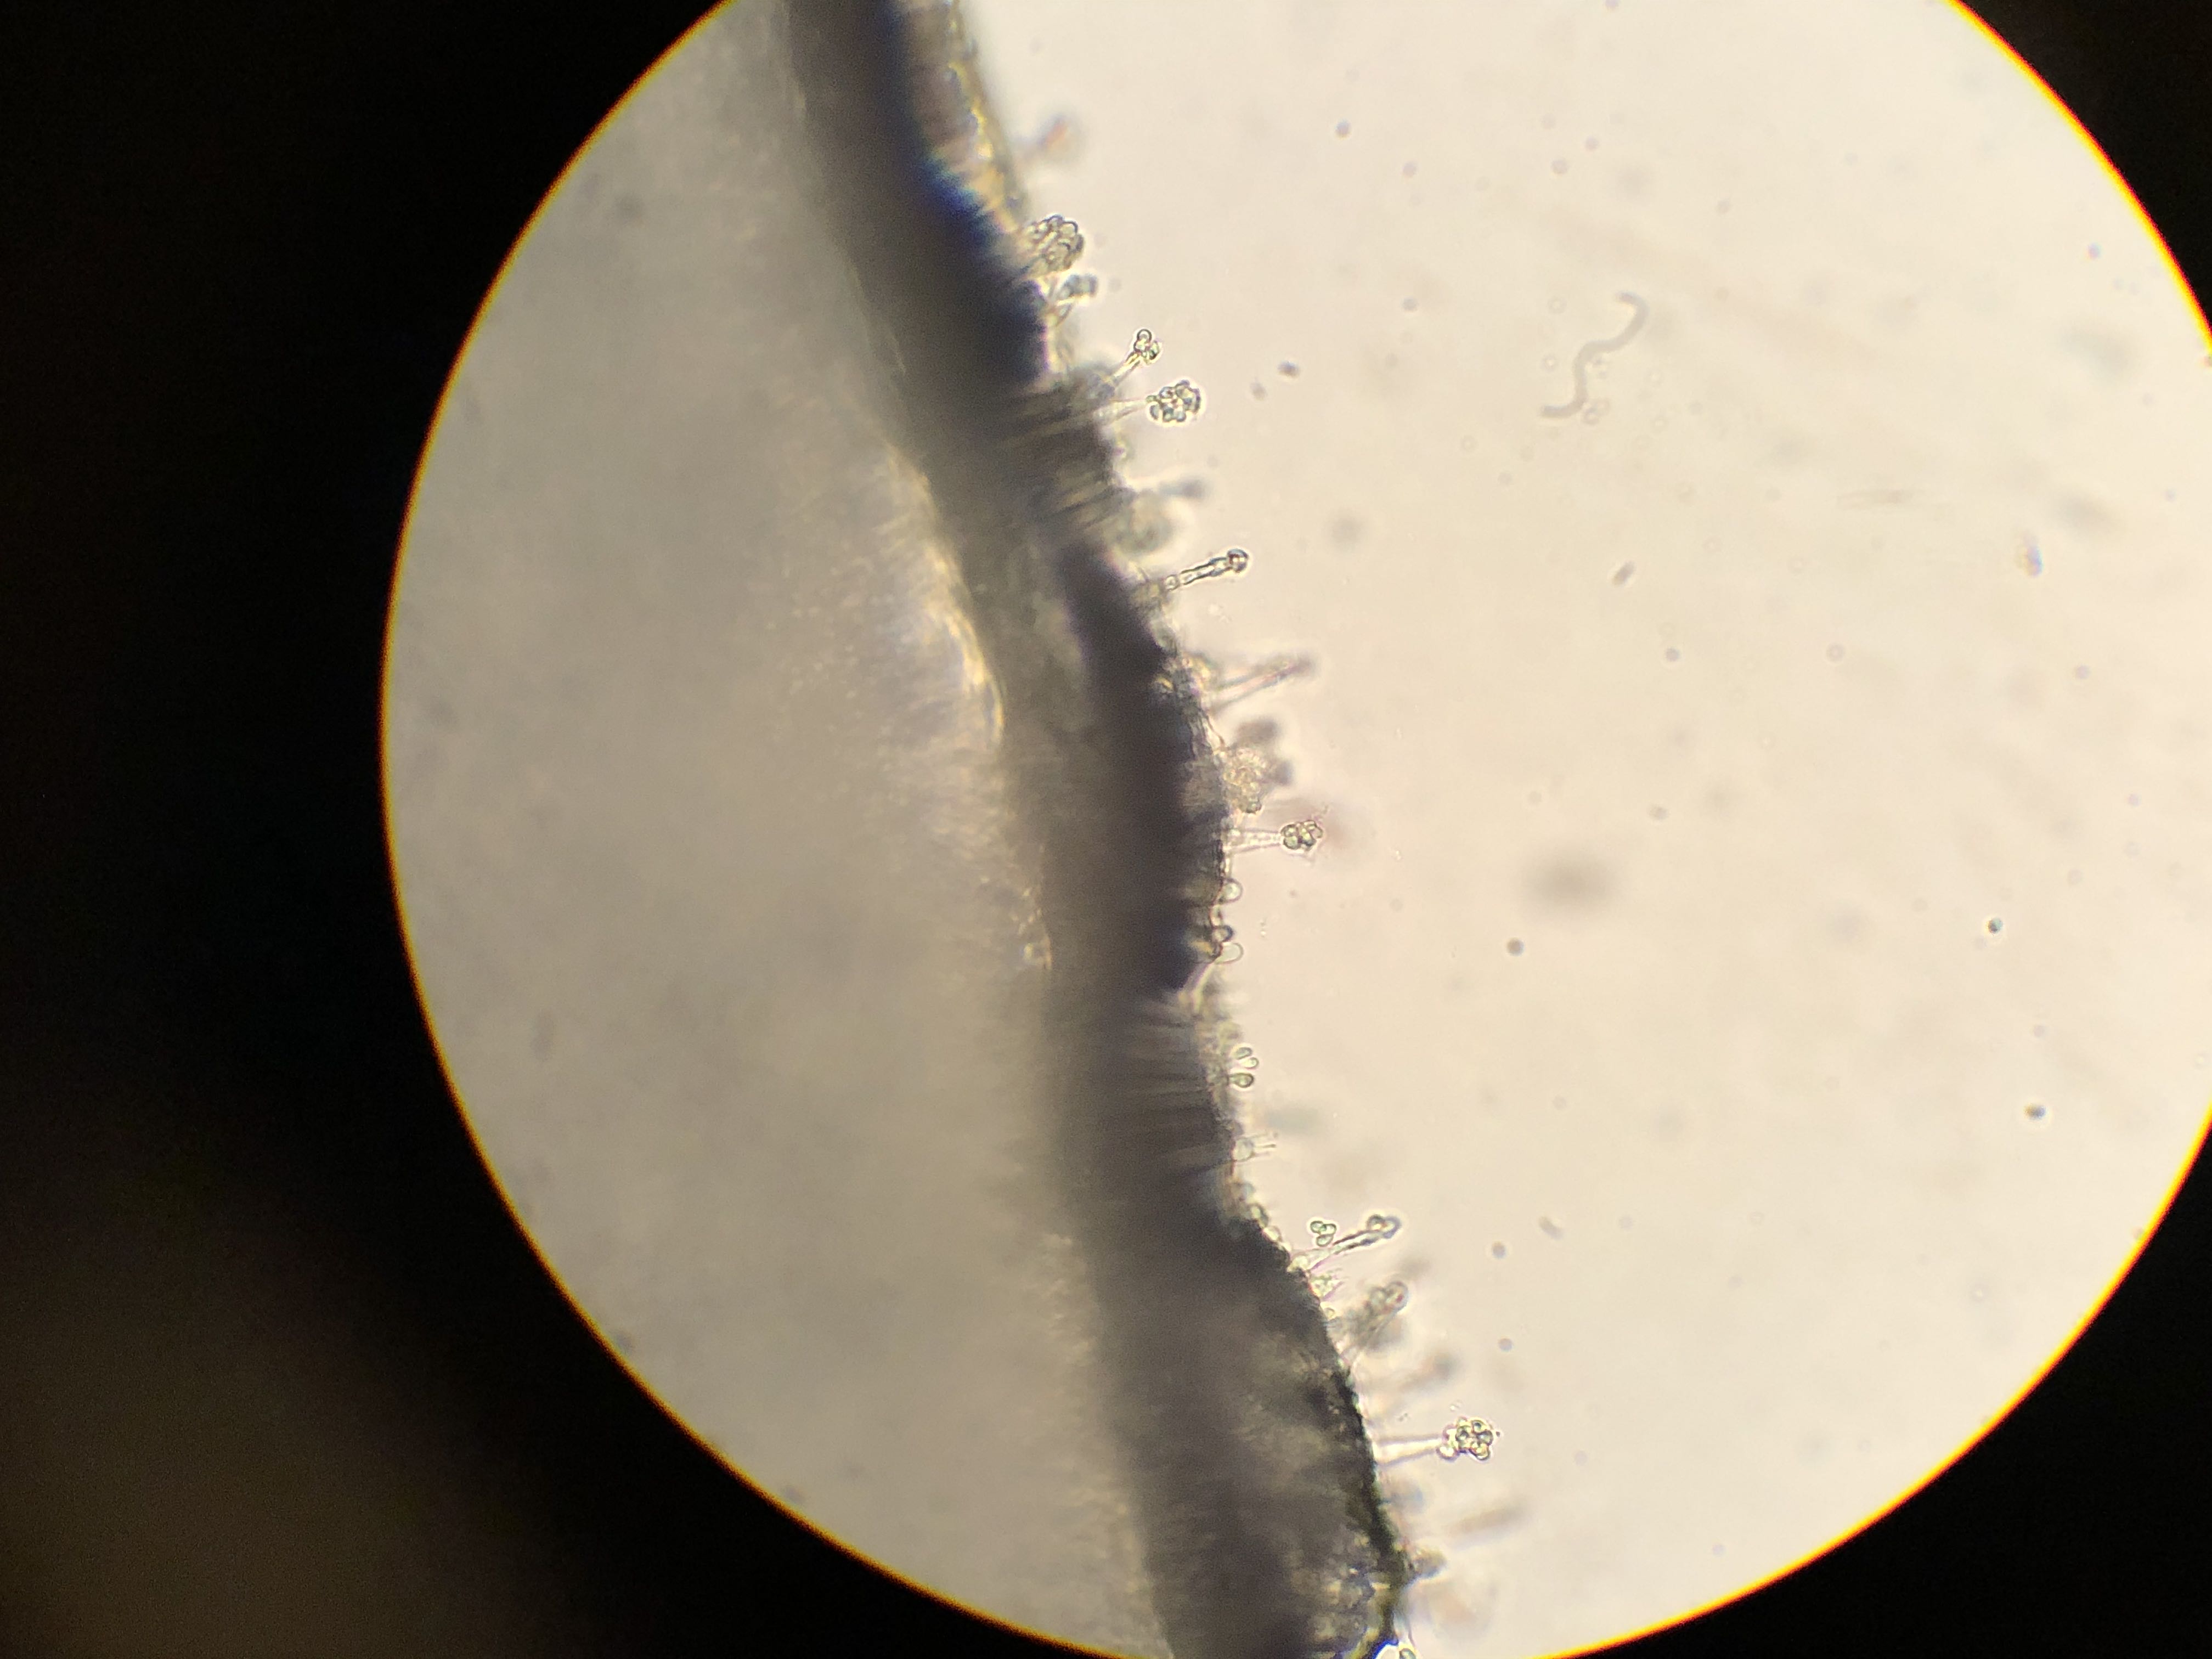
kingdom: Fungi
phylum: Basidiomycota
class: Agaricomycetes
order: Agaricales
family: Agaricaceae
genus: Cystodermella
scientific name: Cystodermella cinnabarina
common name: cinnober-grynhat
